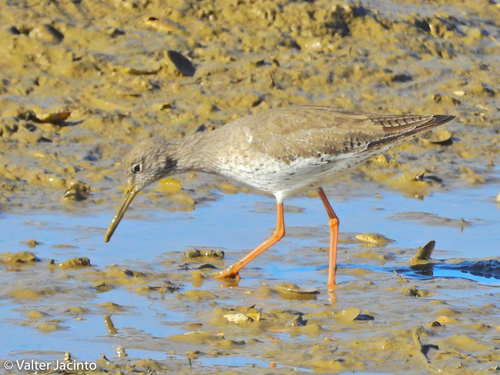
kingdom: Animalia
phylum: Chordata
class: Aves
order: Charadriiformes
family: Scolopacidae
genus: Tringa
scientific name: Tringa totanus
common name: Common redshank
